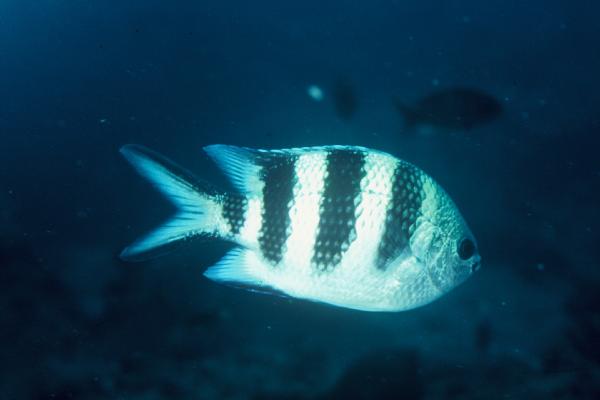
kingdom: Animalia
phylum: Chordata
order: Perciformes
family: Pomacentridae
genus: Abudefduf
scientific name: Abudefduf natalensis
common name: Natal sergeant
